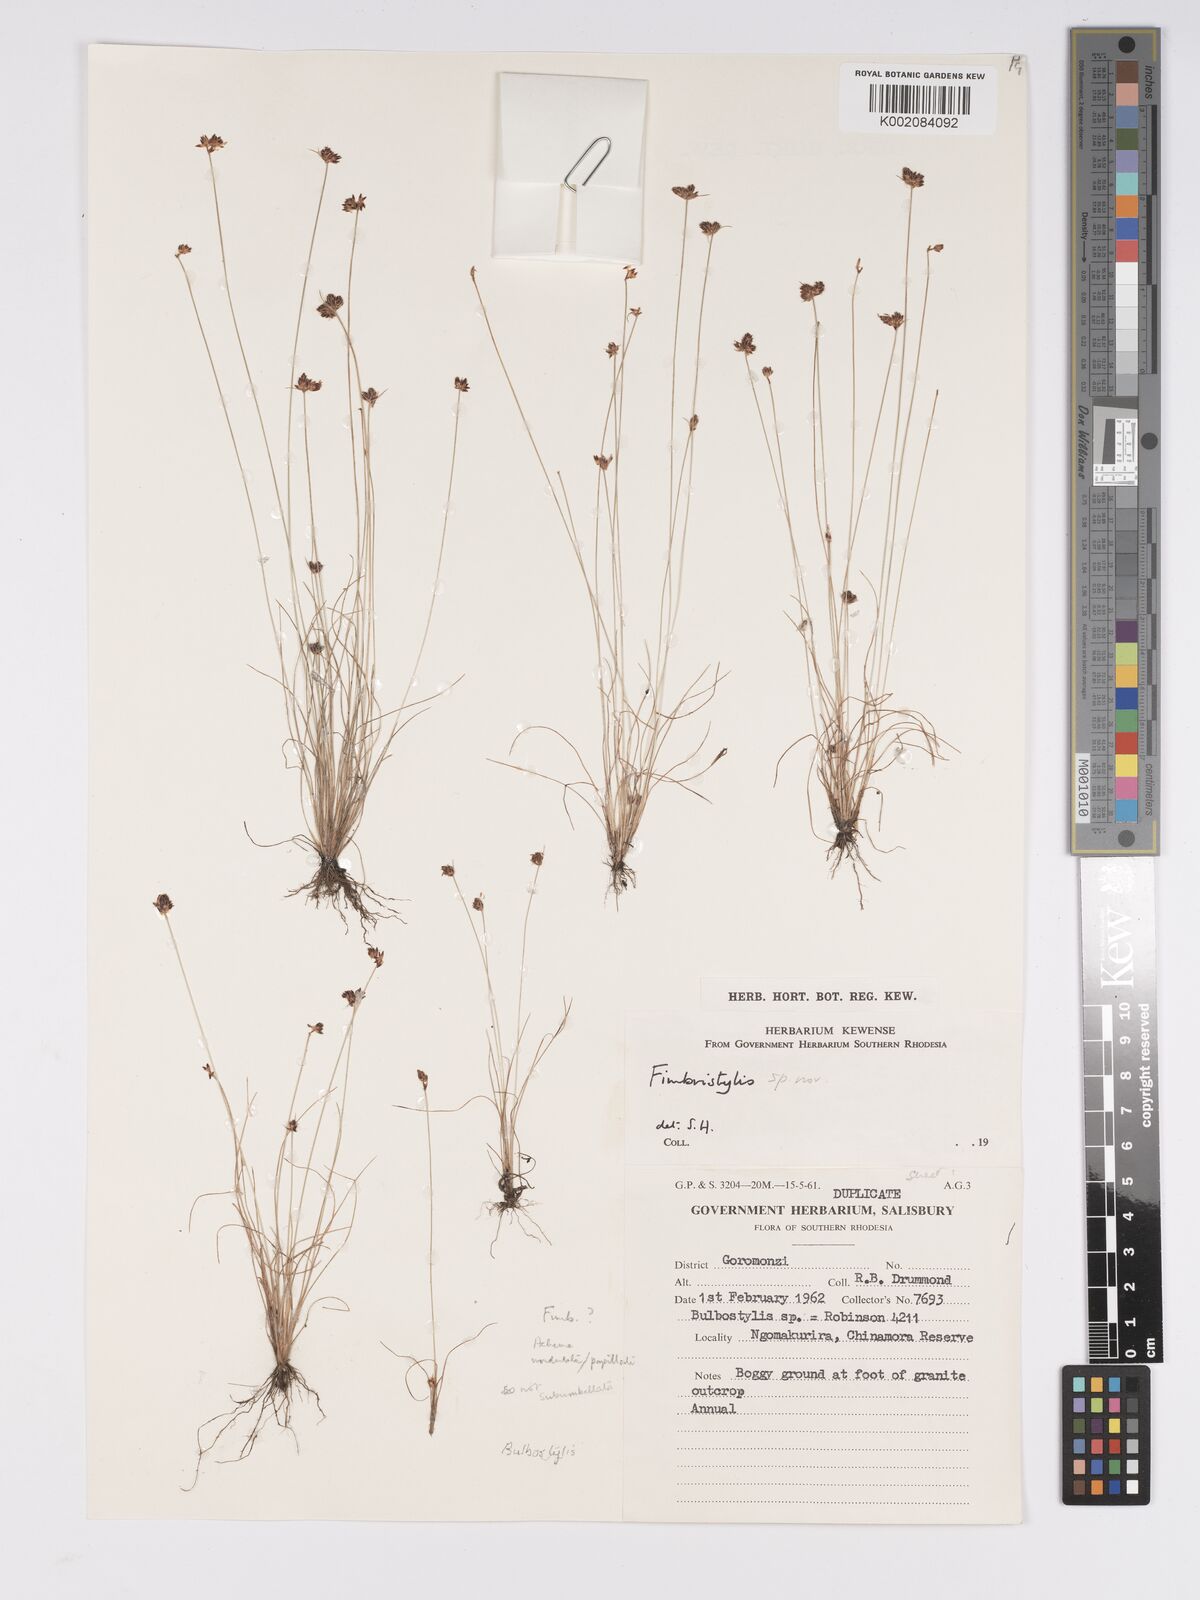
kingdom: Plantae
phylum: Tracheophyta
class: Liliopsida
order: Poales
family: Cyperaceae
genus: Bulbostylis
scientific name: Bulbostylis
